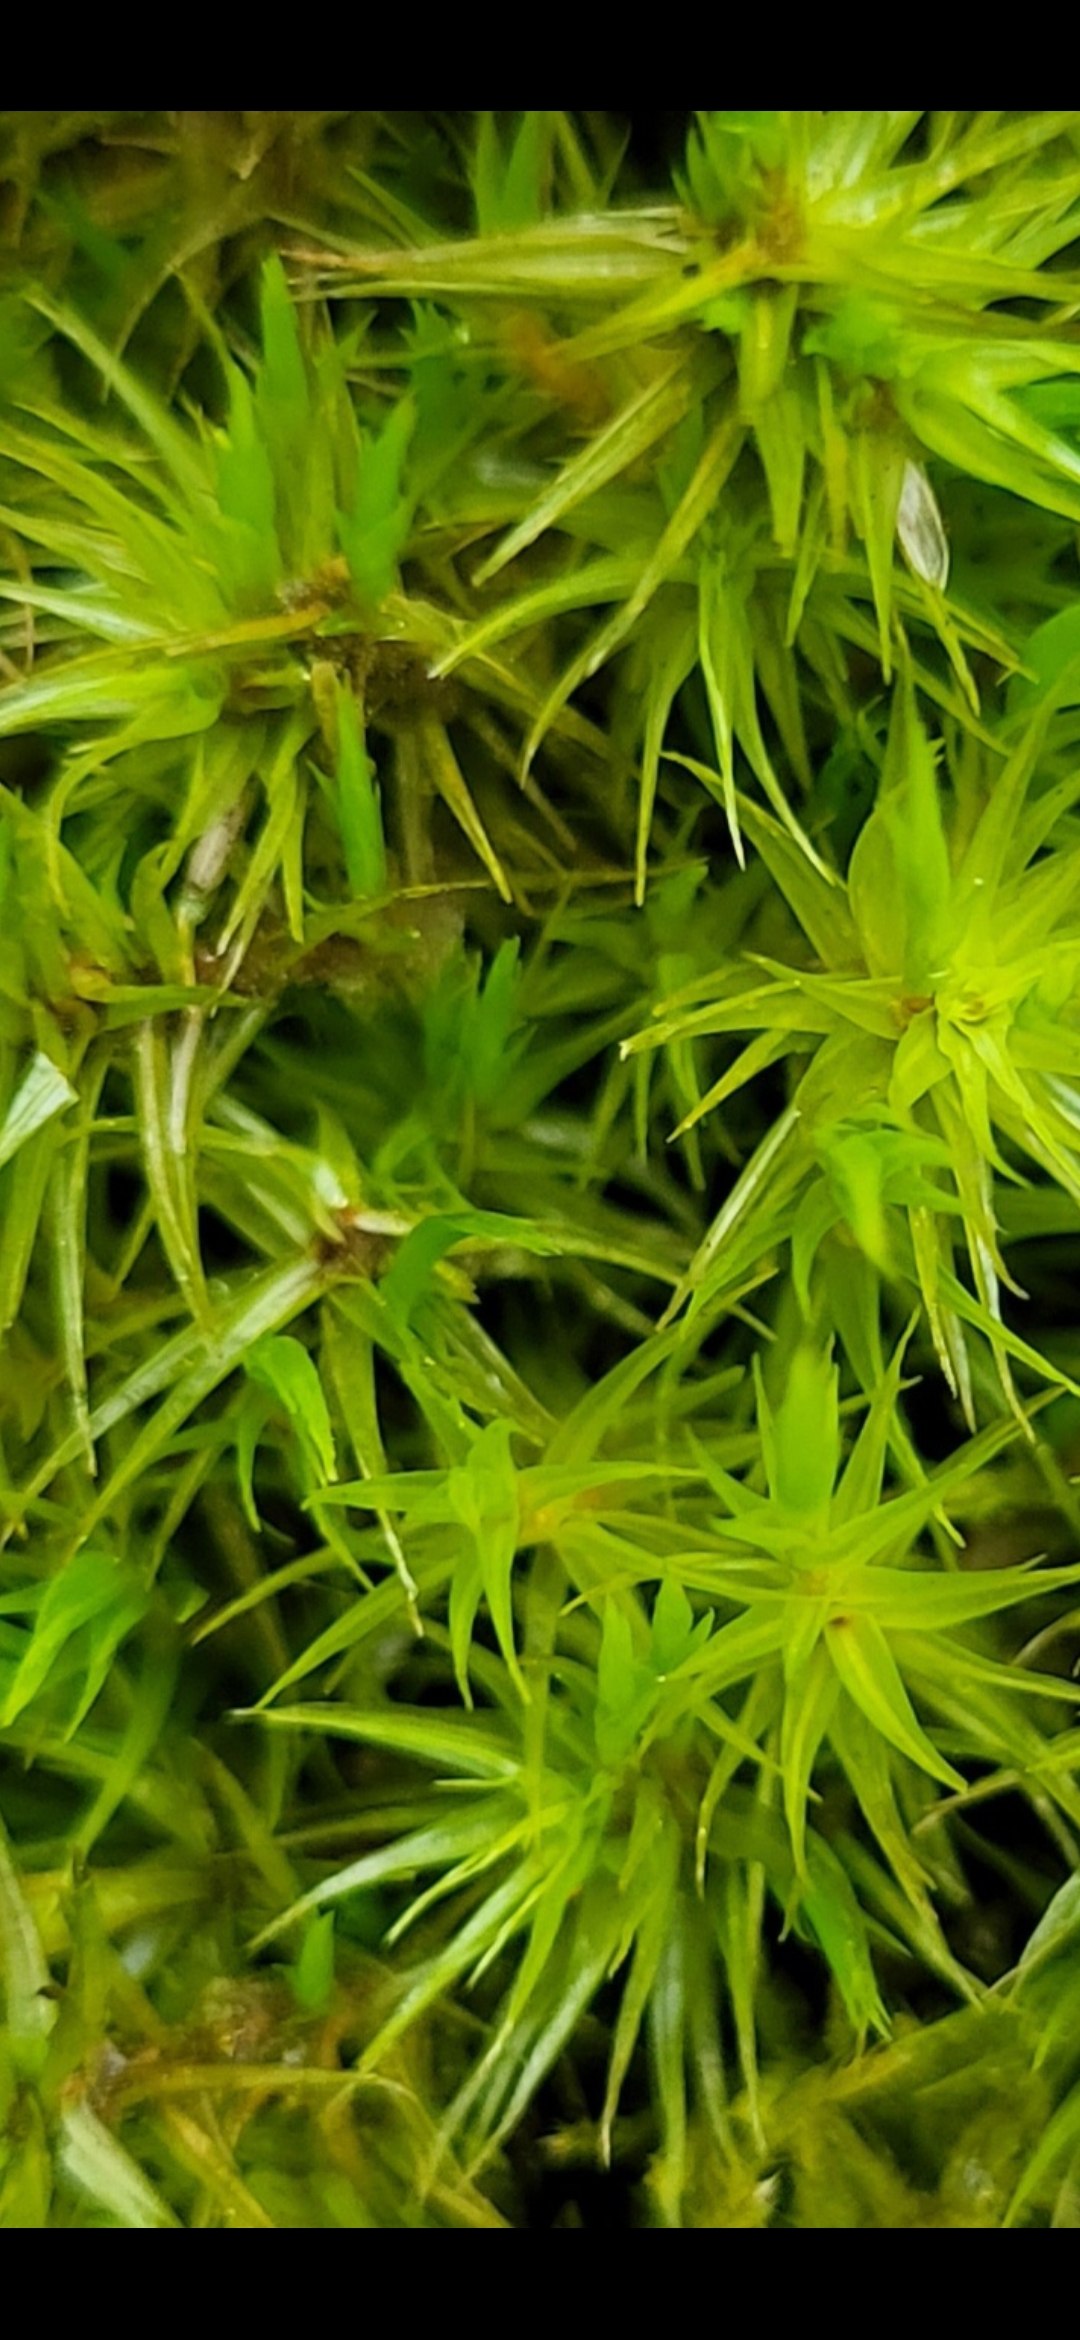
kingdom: Plantae
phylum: Bryophyta
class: Bryopsida
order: Dicranales
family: Dicranaceae
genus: Dicranum
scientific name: Dicranum scoparium
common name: Almindelig kløvtand
